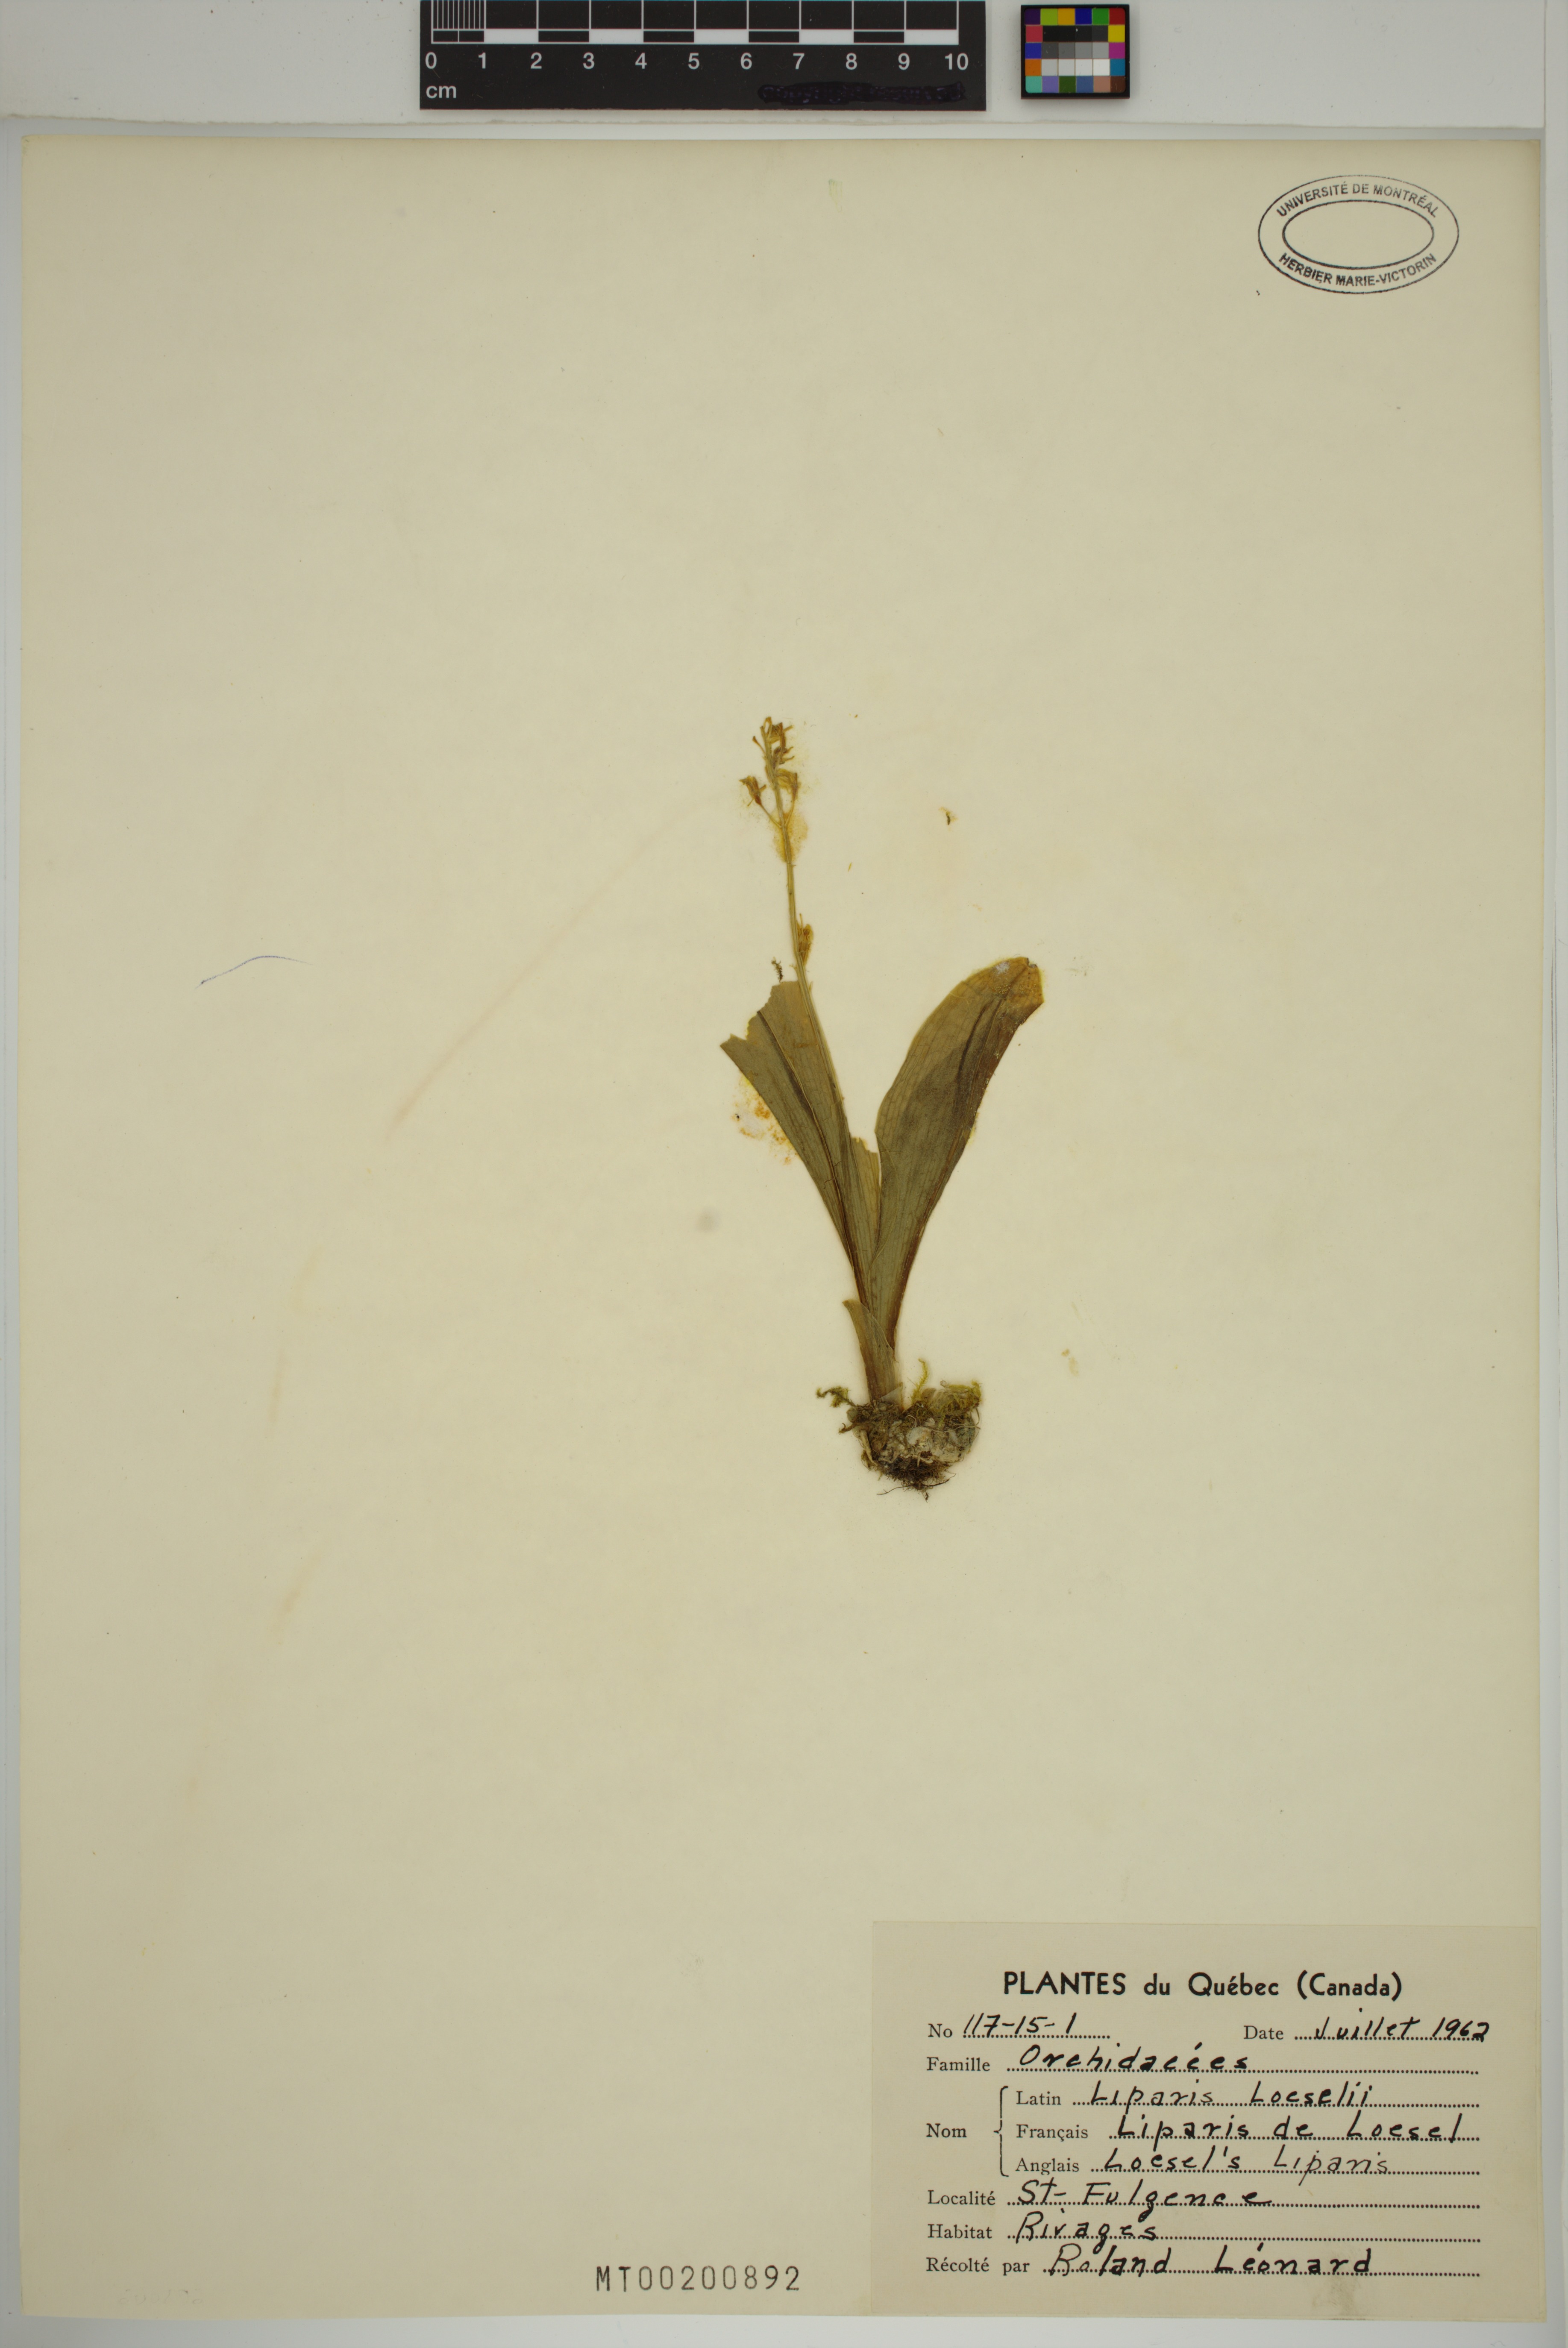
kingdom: Animalia
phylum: Arthropoda
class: Insecta
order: Coleoptera
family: Curculionidae
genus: Liparis
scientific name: Liparis loeselii
